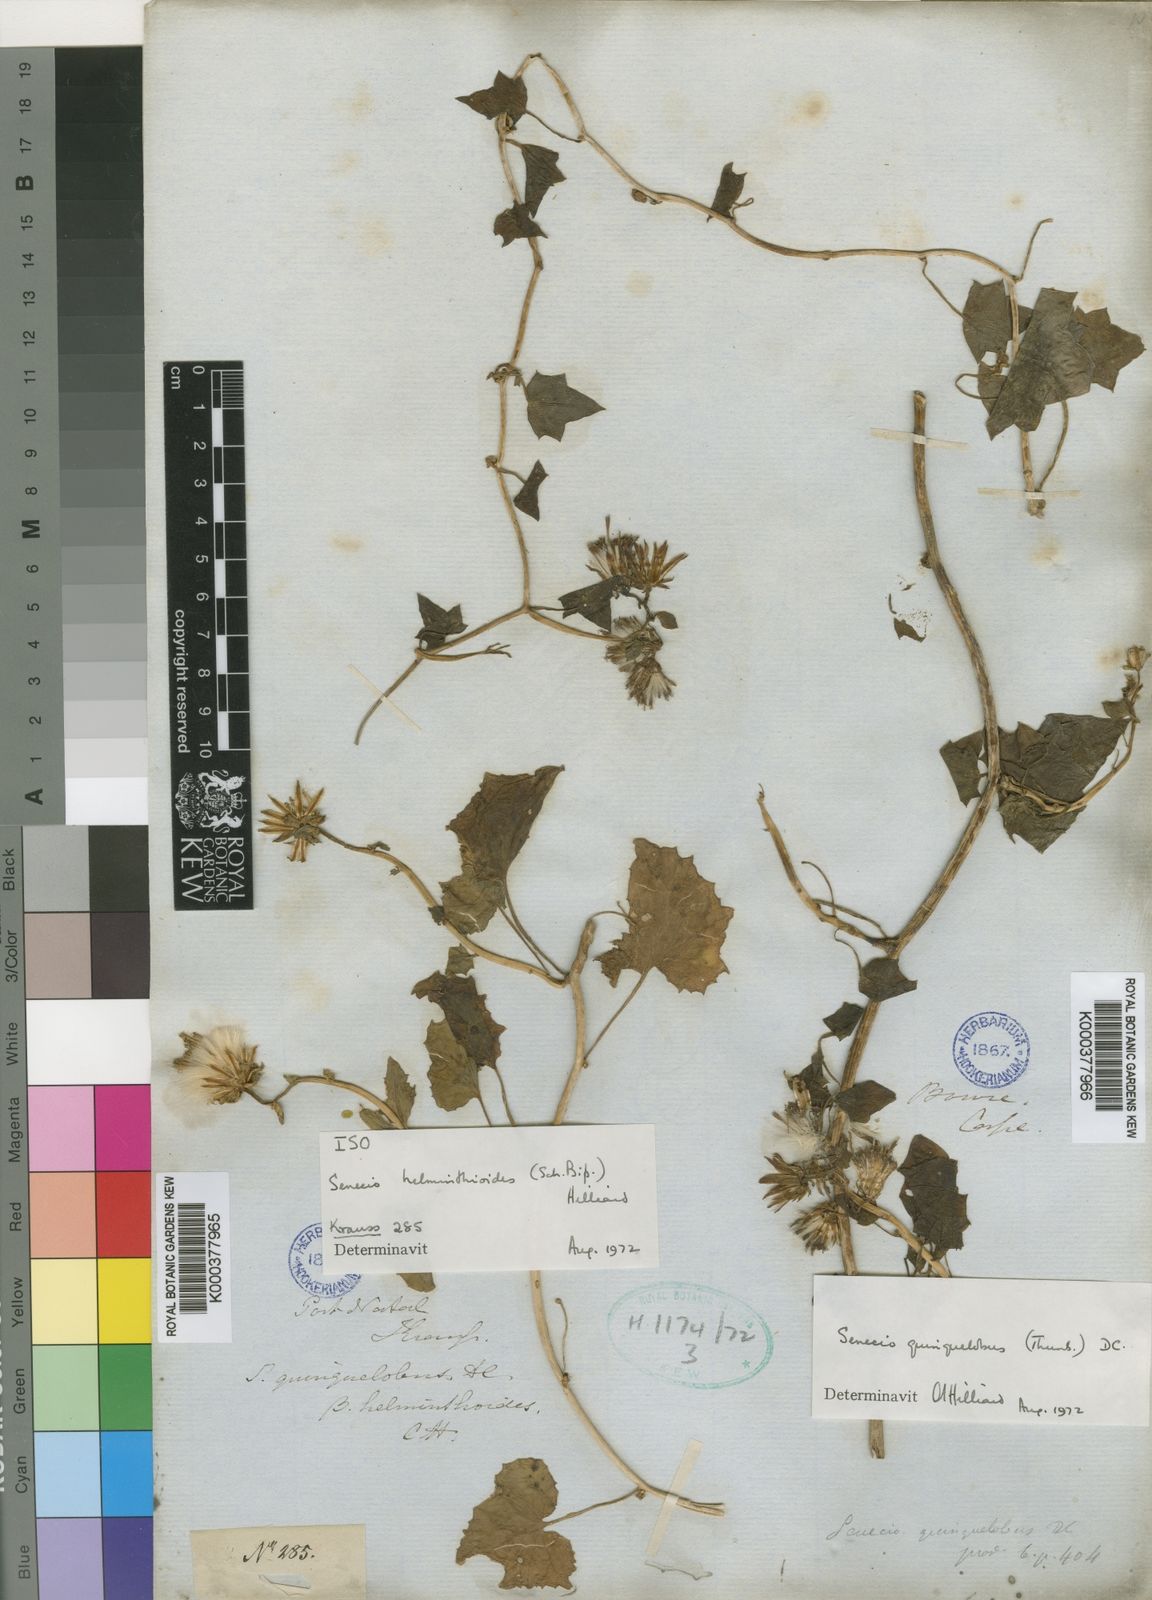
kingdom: Plantae
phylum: Tracheophyta
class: Magnoliopsida
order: Asterales
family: Asteraceae
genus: Senecio
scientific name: Senecio helminthioides
